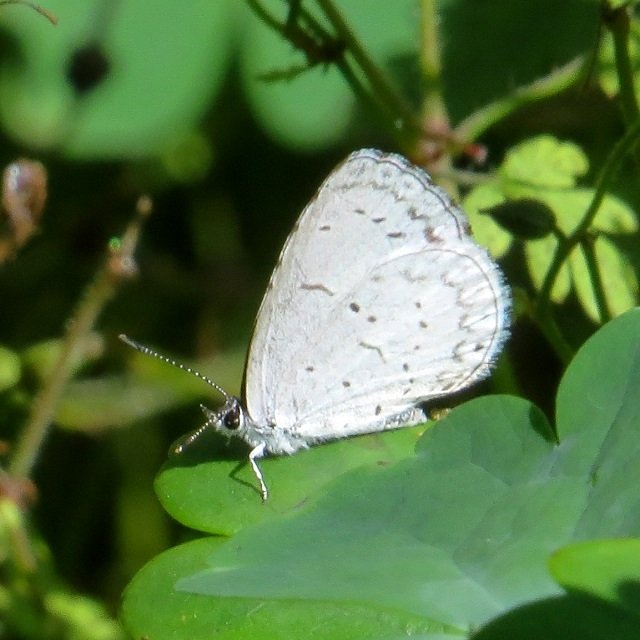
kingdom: Animalia
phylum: Arthropoda
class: Insecta
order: Lepidoptera
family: Lycaenidae
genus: Celastrina
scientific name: Celastrina
